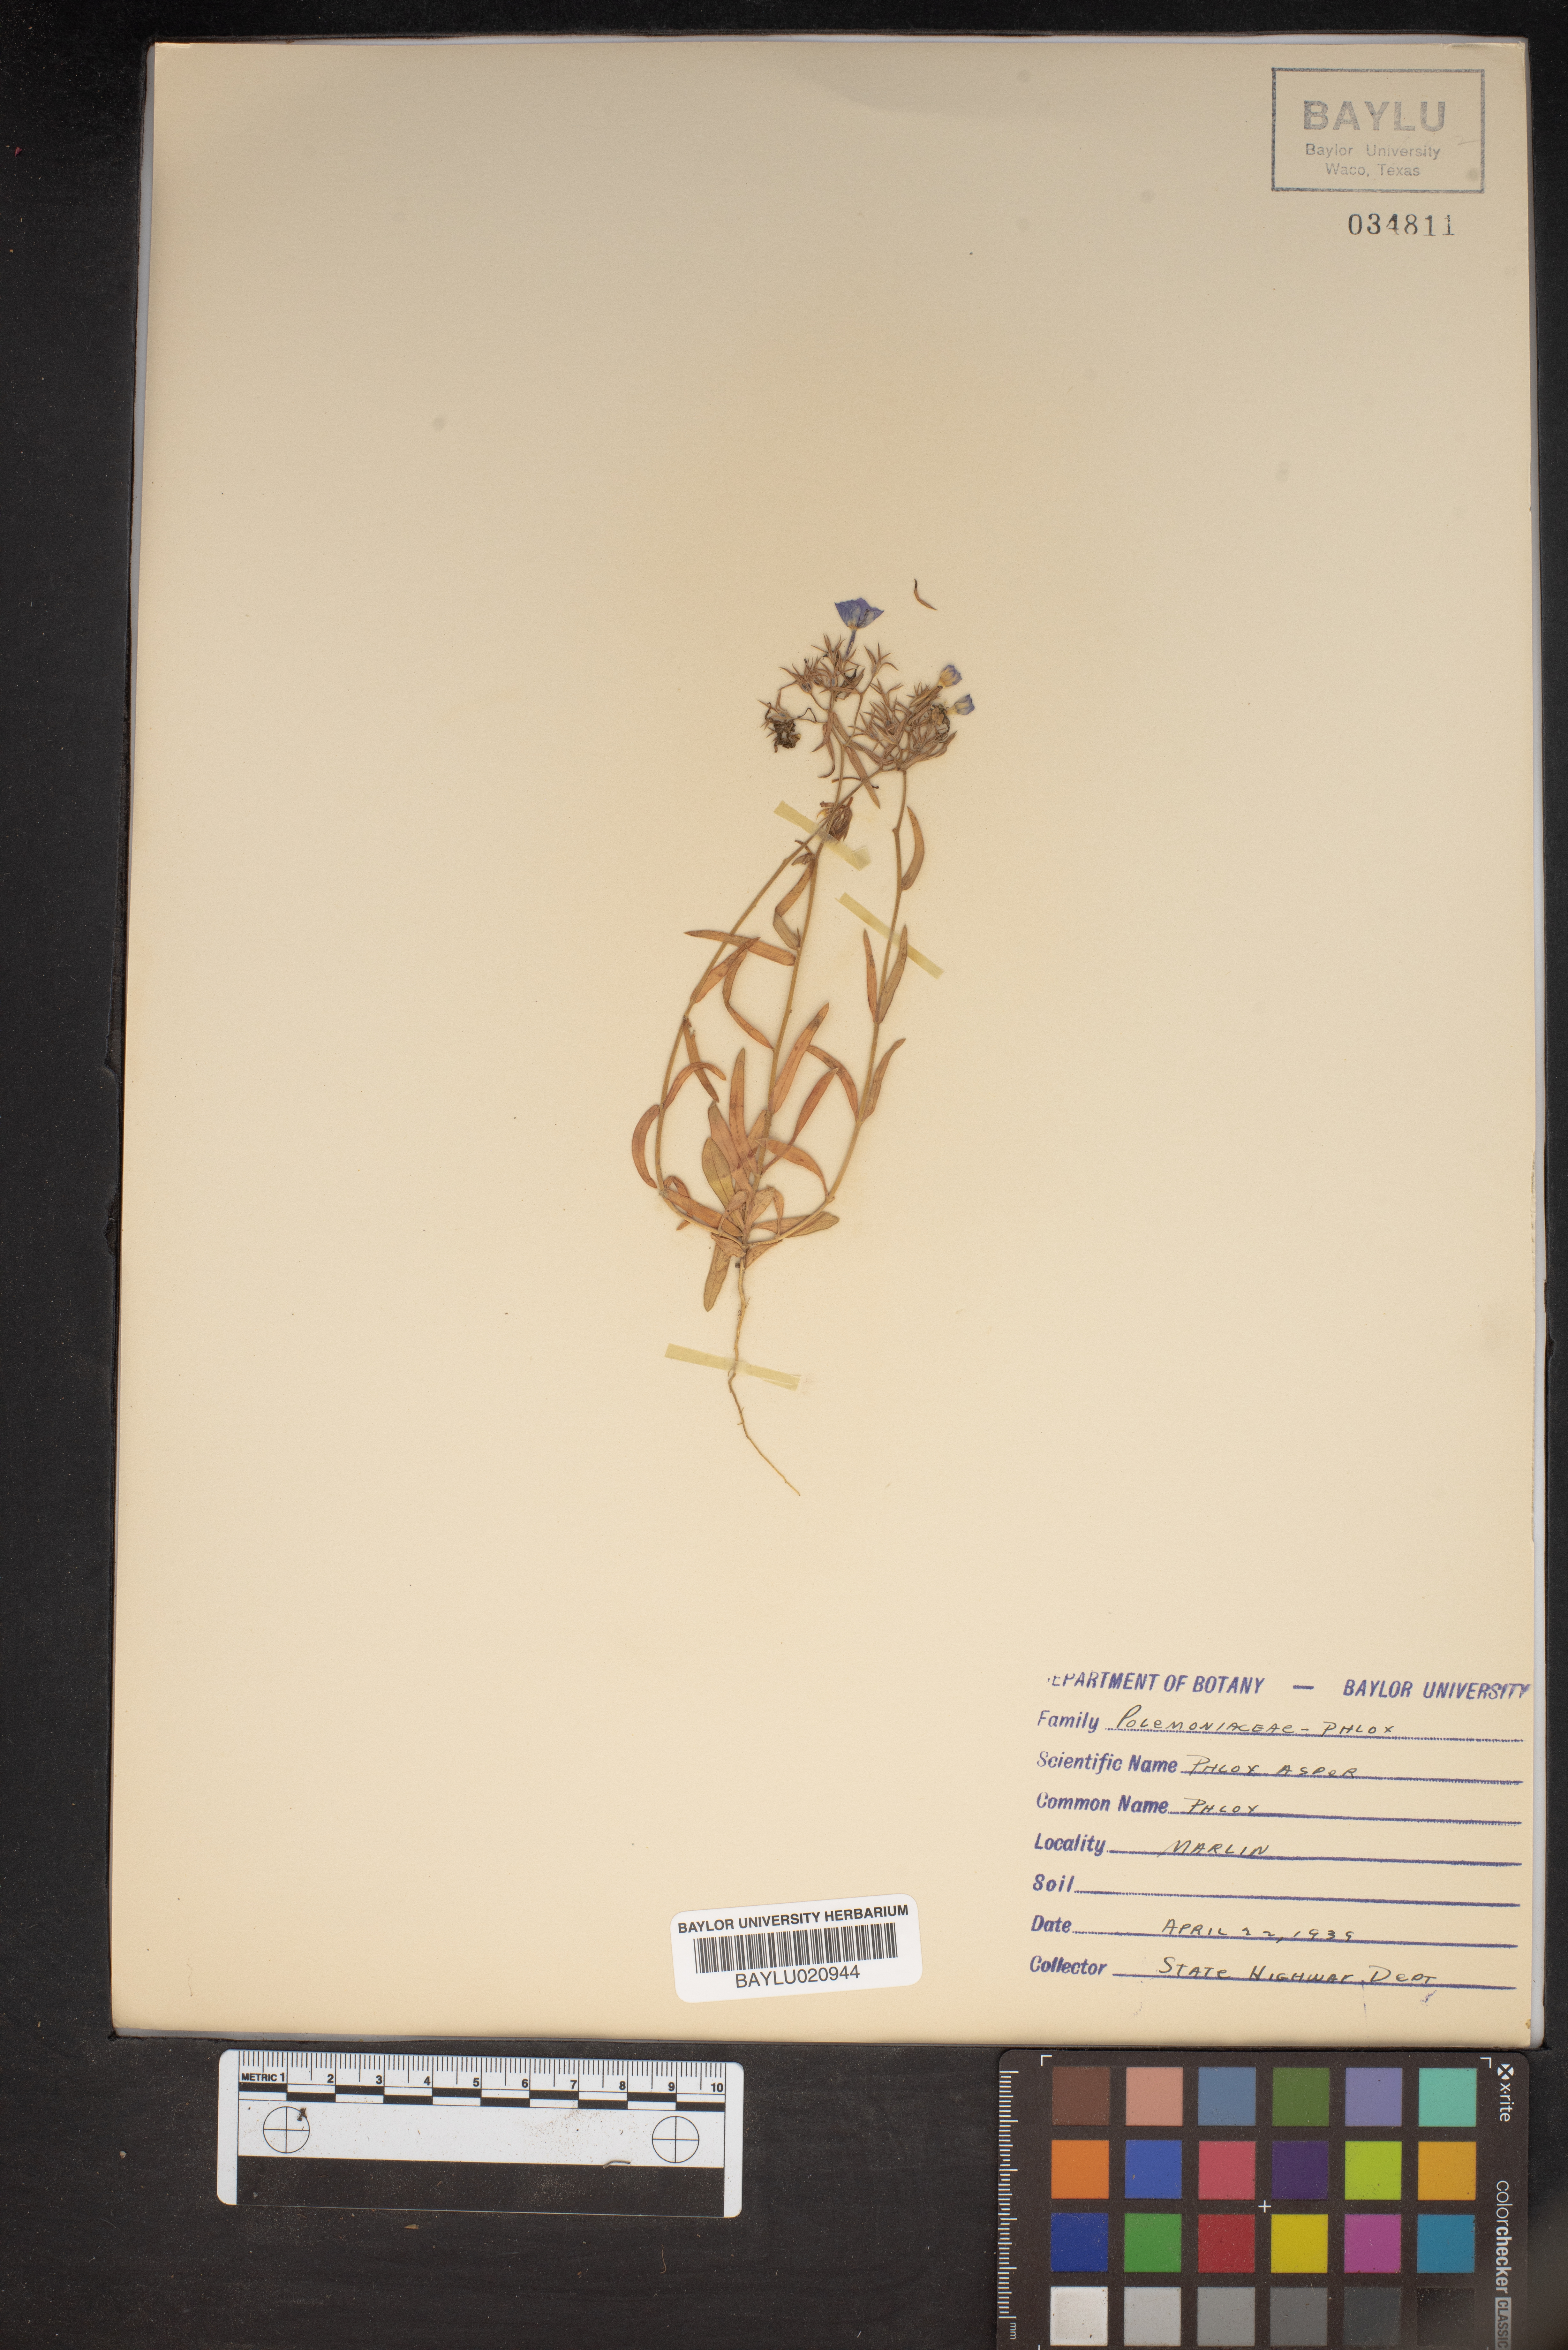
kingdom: Plantae
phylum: Tracheophyta
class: Magnoliopsida
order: Ericales
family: Polemoniaceae
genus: Phlox
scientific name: Phlox variabilis
